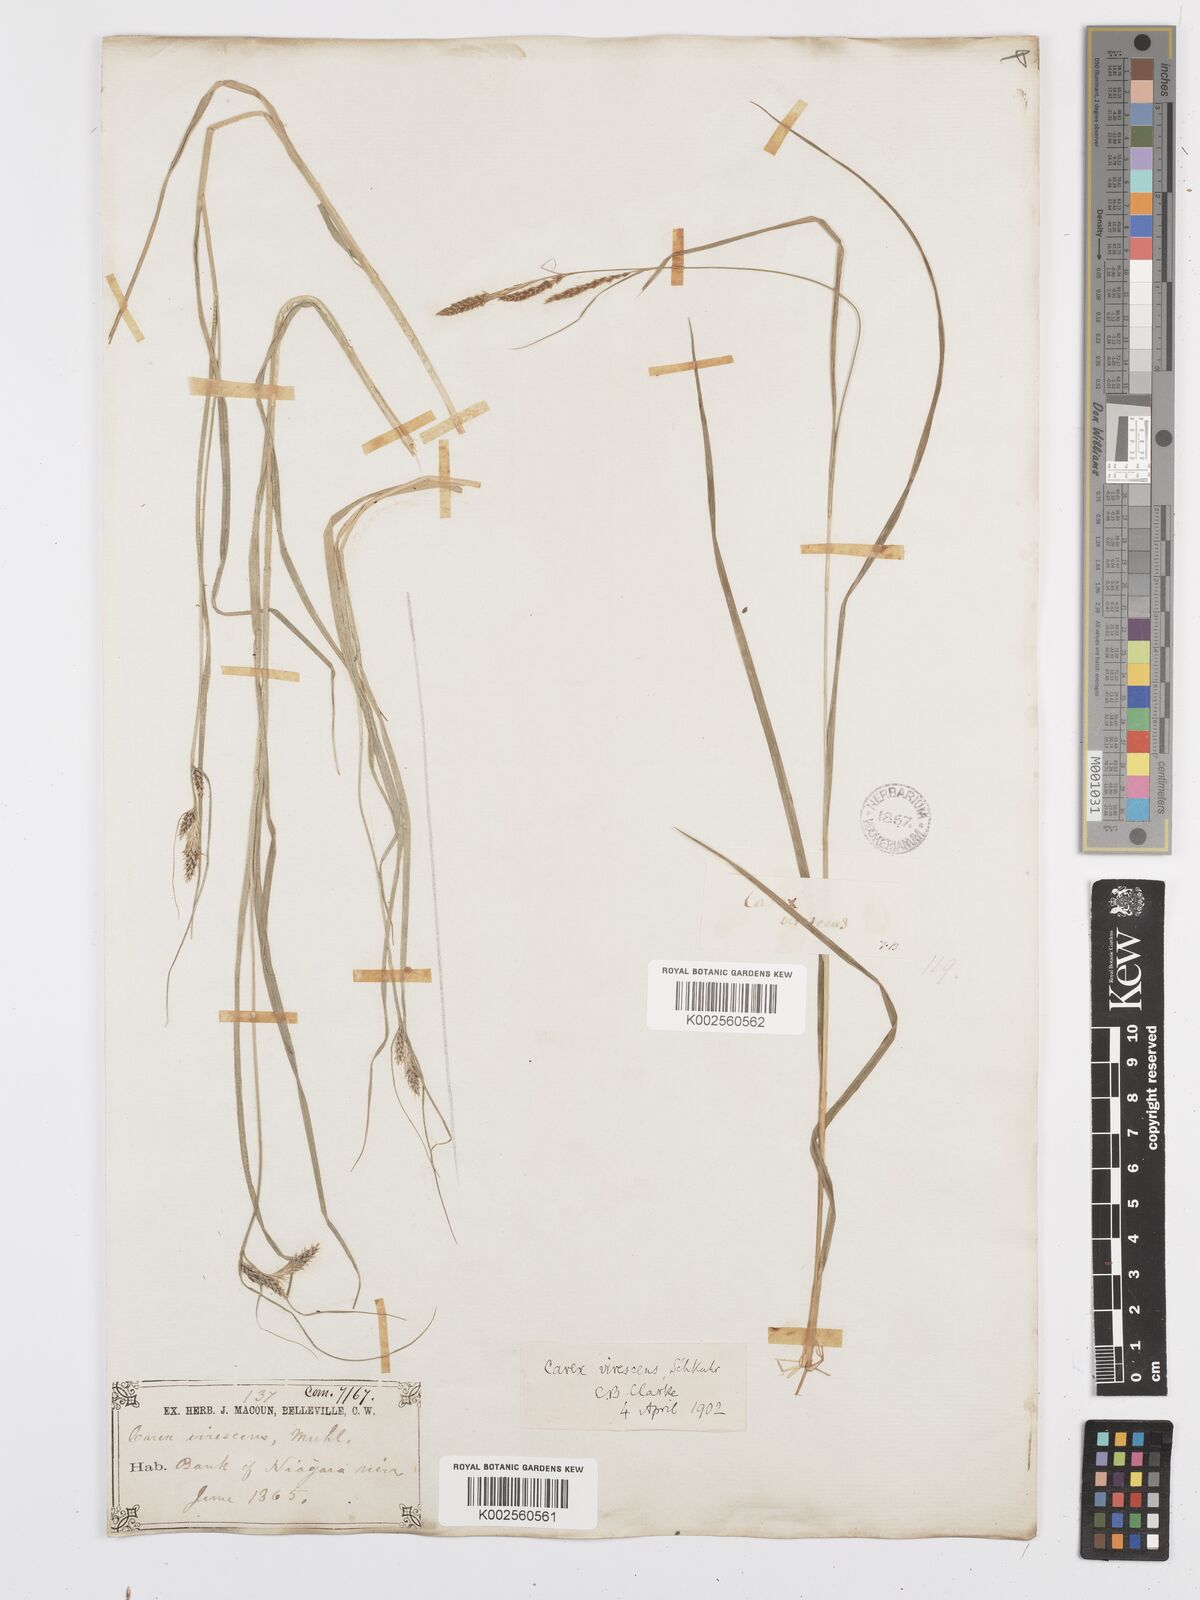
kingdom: Plantae
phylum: Tracheophyta
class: Liliopsida
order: Poales
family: Cyperaceae
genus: Carex
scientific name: Carex virescens
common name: Ribbed sedge
